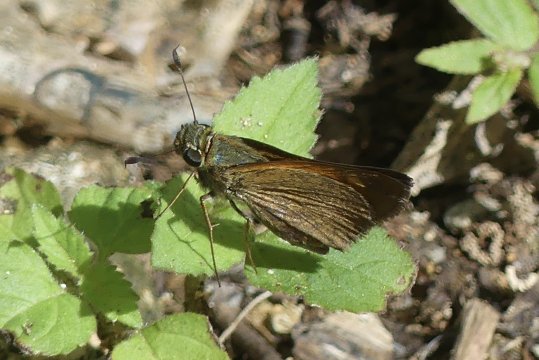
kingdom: Animalia
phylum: Arthropoda
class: Insecta
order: Lepidoptera
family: Hesperiidae
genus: Polites
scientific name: Polites baracoa
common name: Baracoa Skipper
